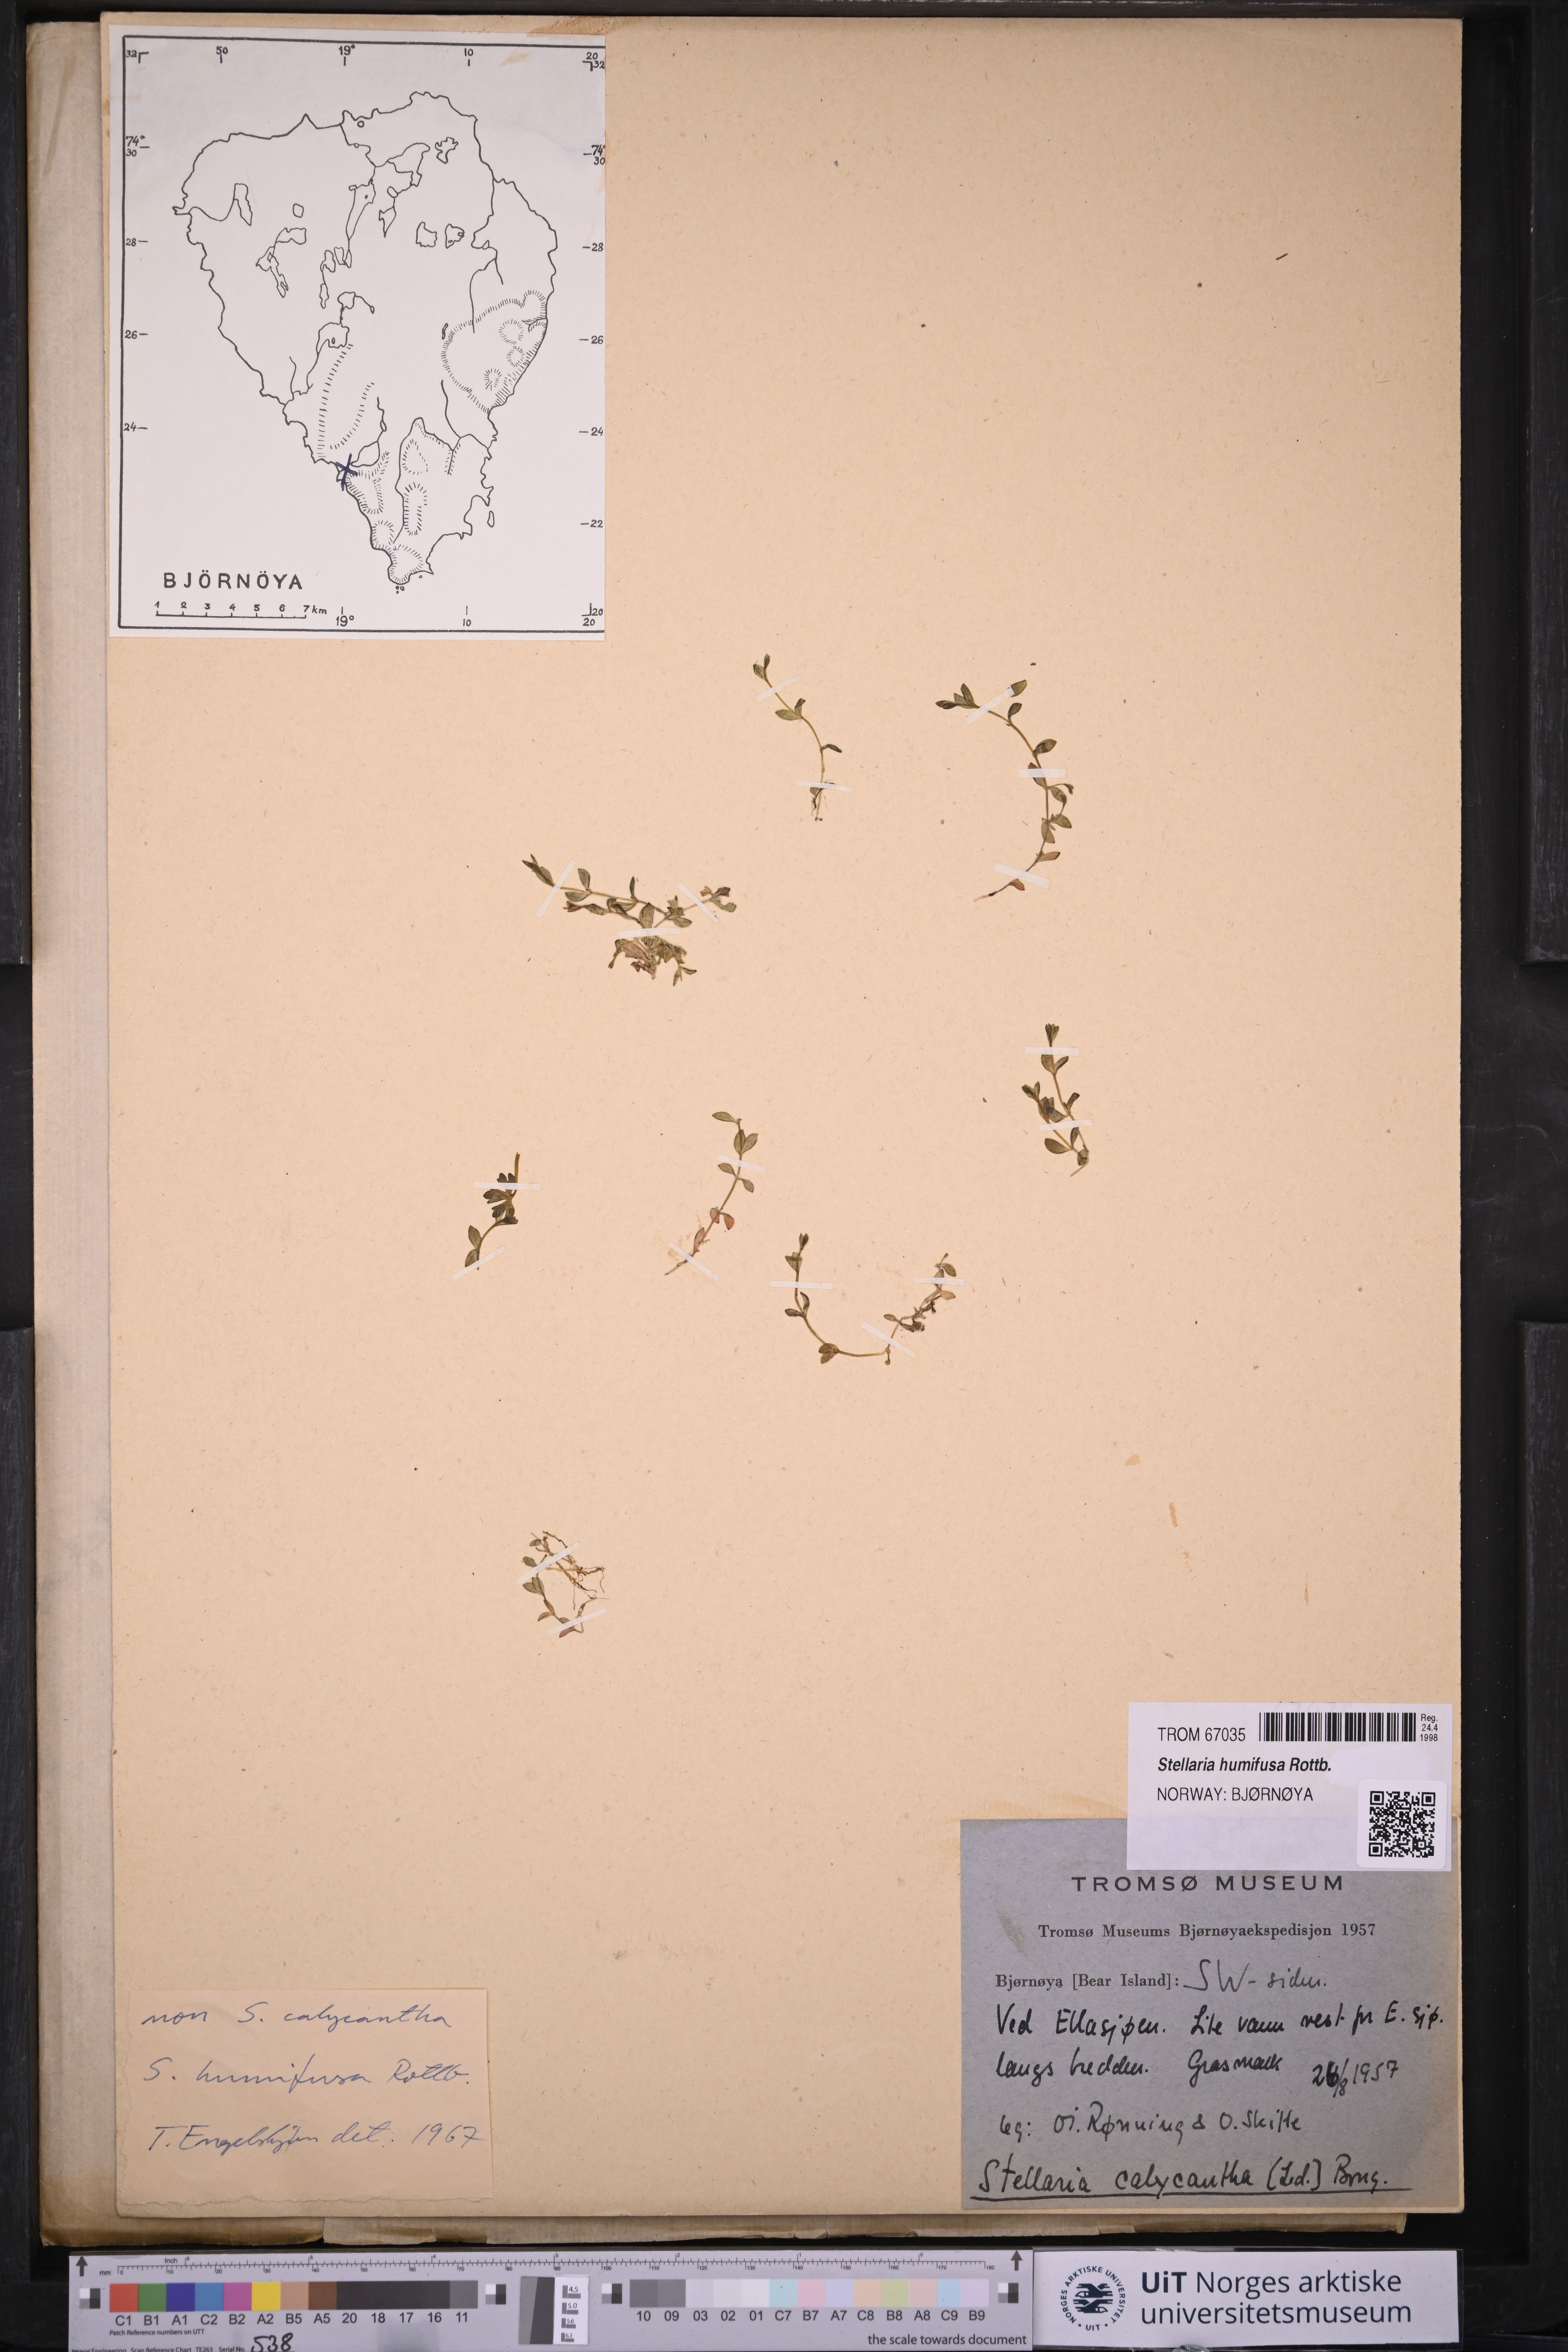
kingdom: Plantae
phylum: Tracheophyta
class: Magnoliopsida
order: Caryophyllales
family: Caryophyllaceae
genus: Stellaria
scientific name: Stellaria humifusa
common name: Creeping starwort
